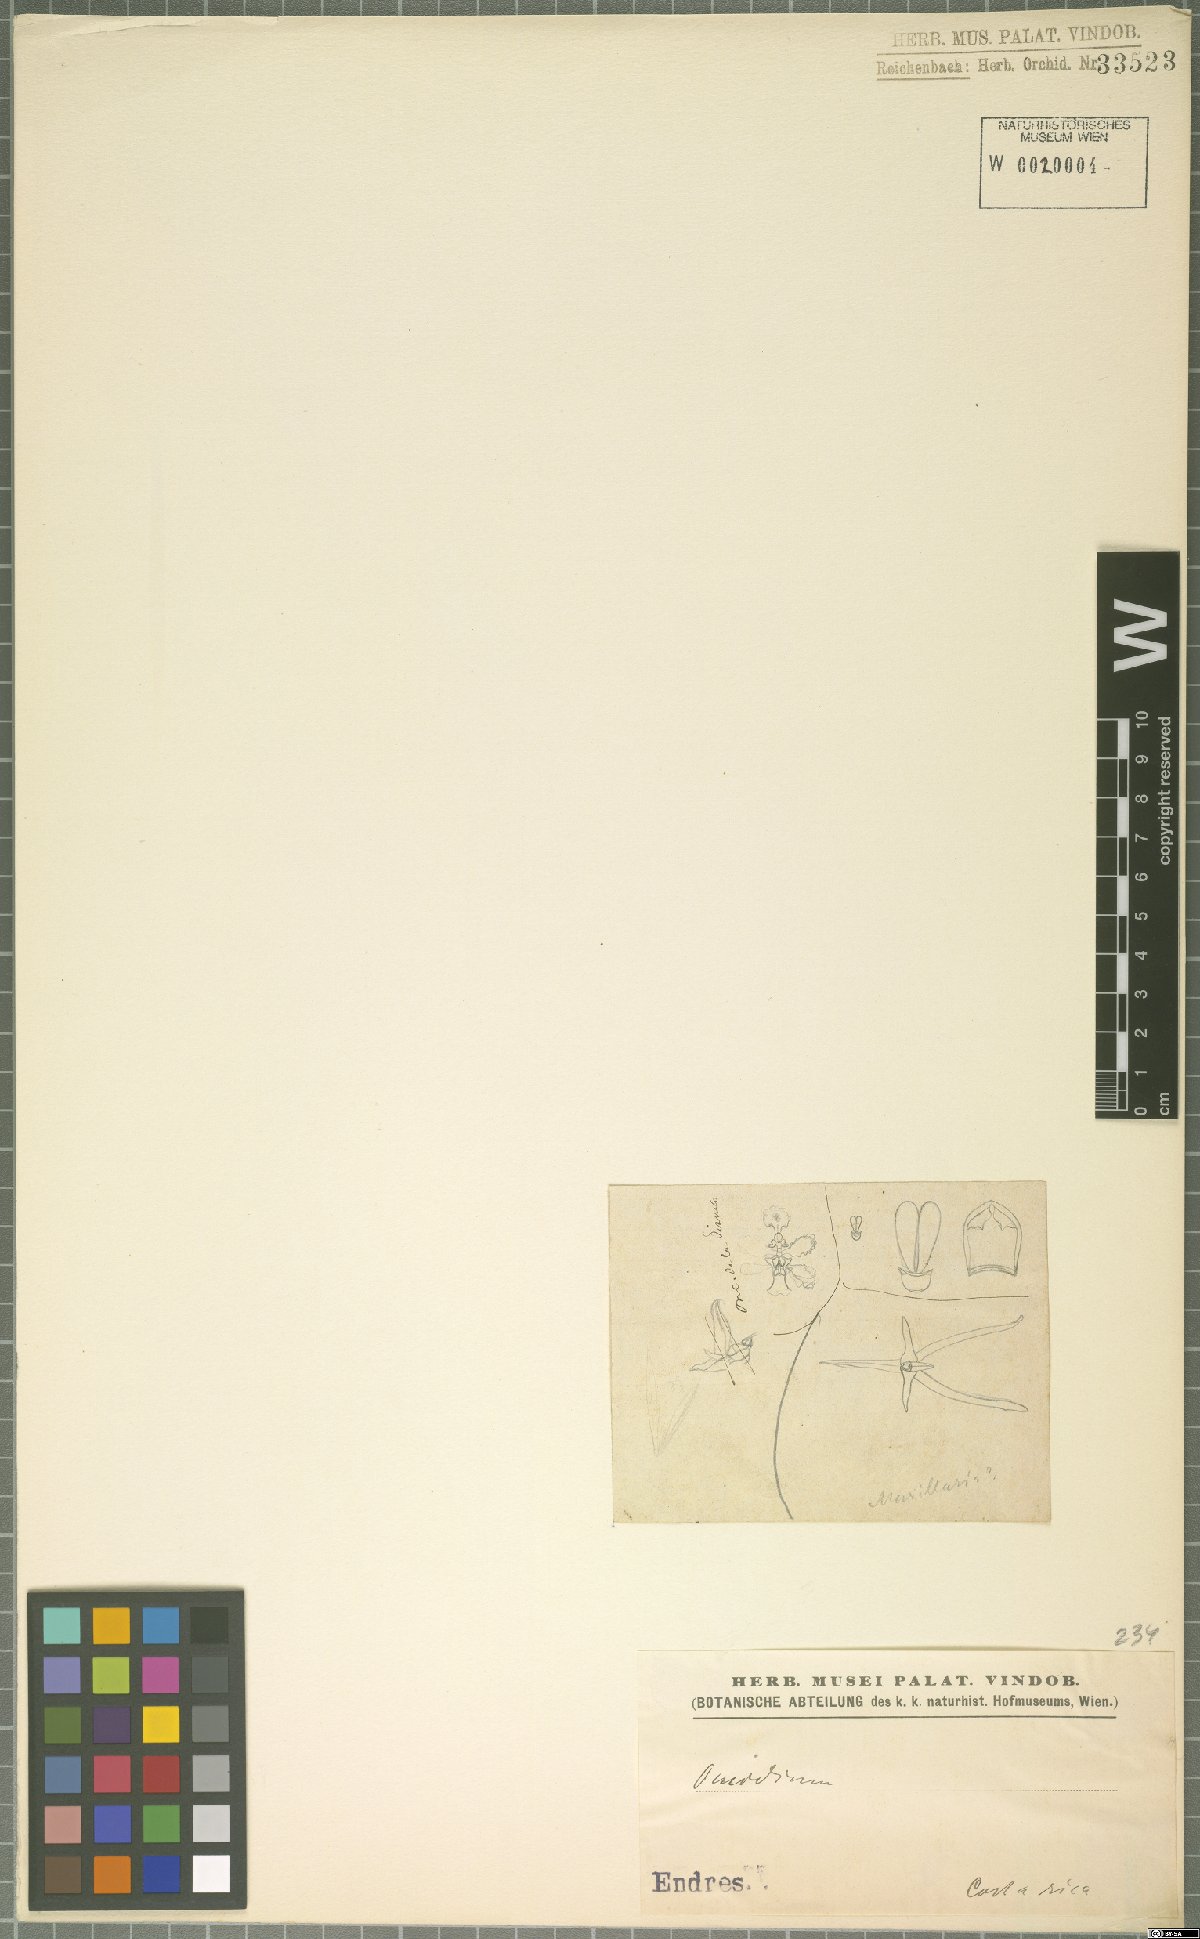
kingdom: Plantae
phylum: Tracheophyta
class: Liliopsida
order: Asparagales
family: Orchidaceae
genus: Oncidium
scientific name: Oncidium
